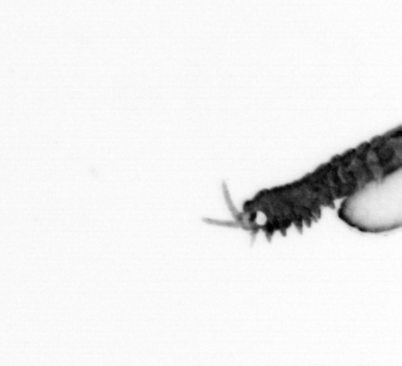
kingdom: Animalia
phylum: Annelida
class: Polychaeta
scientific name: Polychaeta
